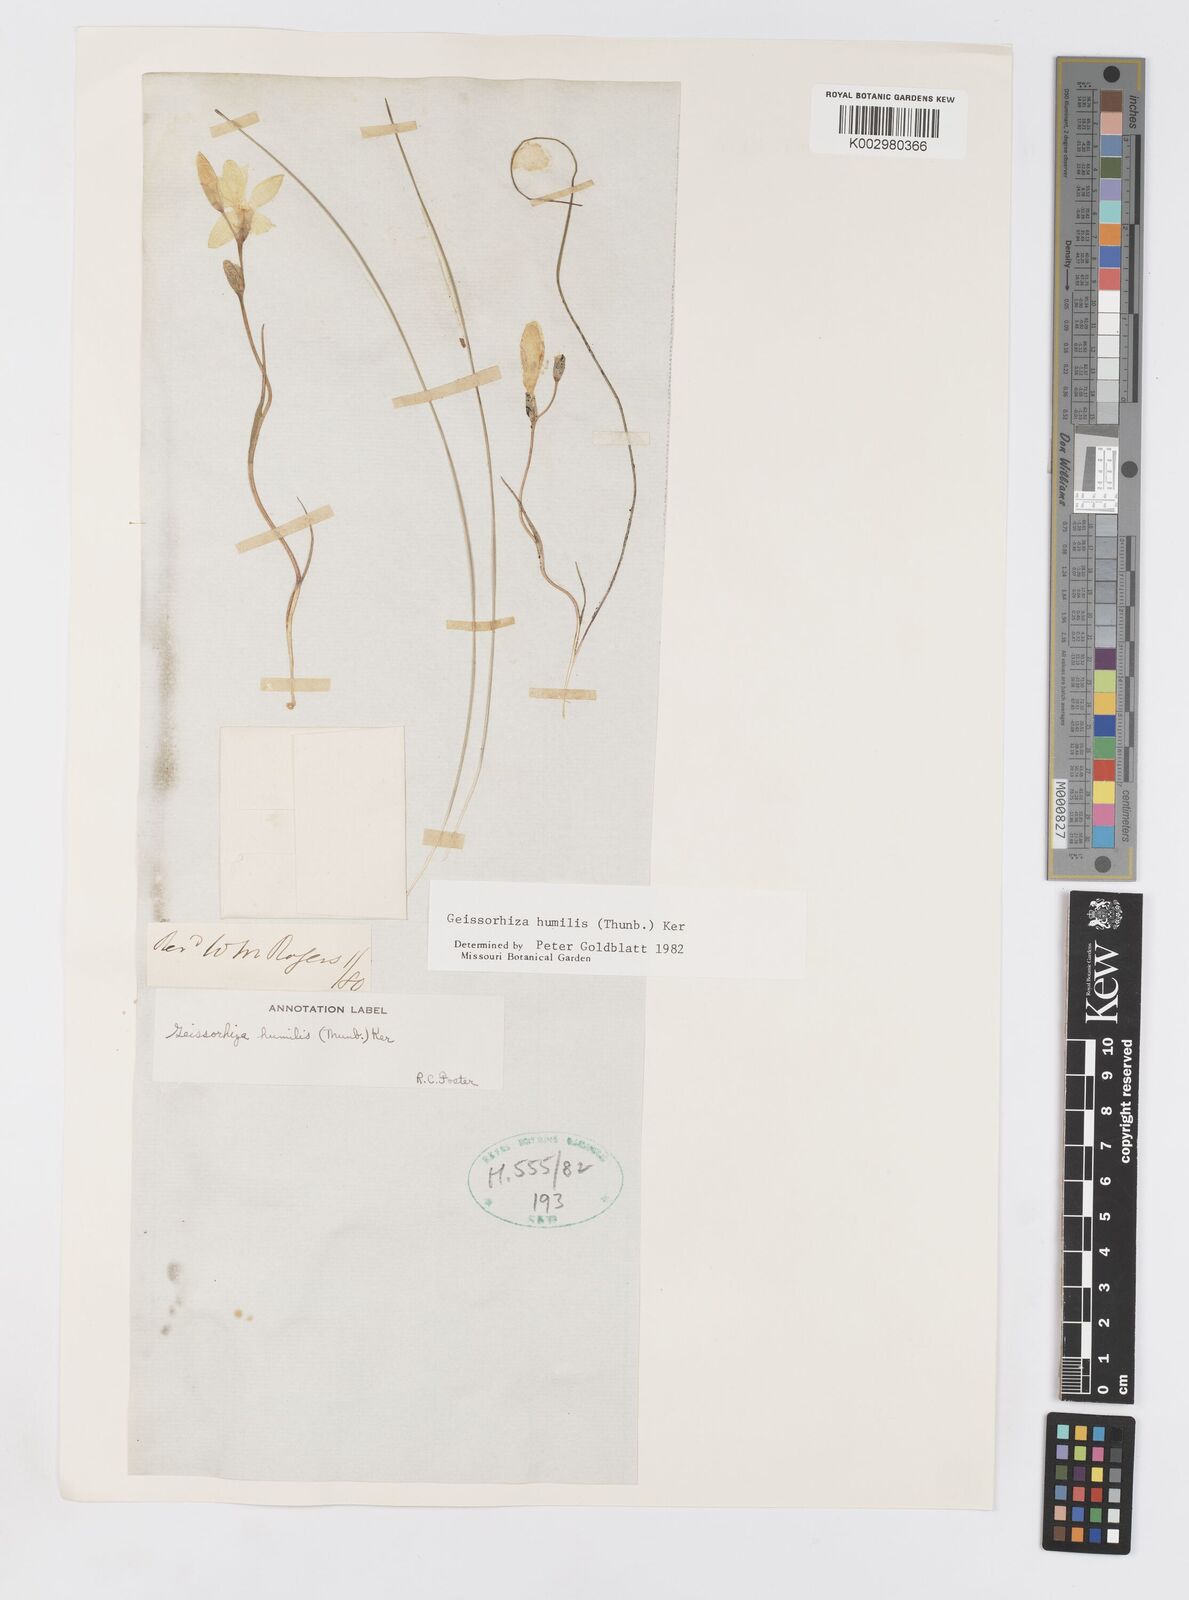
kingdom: Plantae
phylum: Tracheophyta
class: Liliopsida
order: Asparagales
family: Iridaceae
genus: Geissorhiza
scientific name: Geissorhiza humilis
